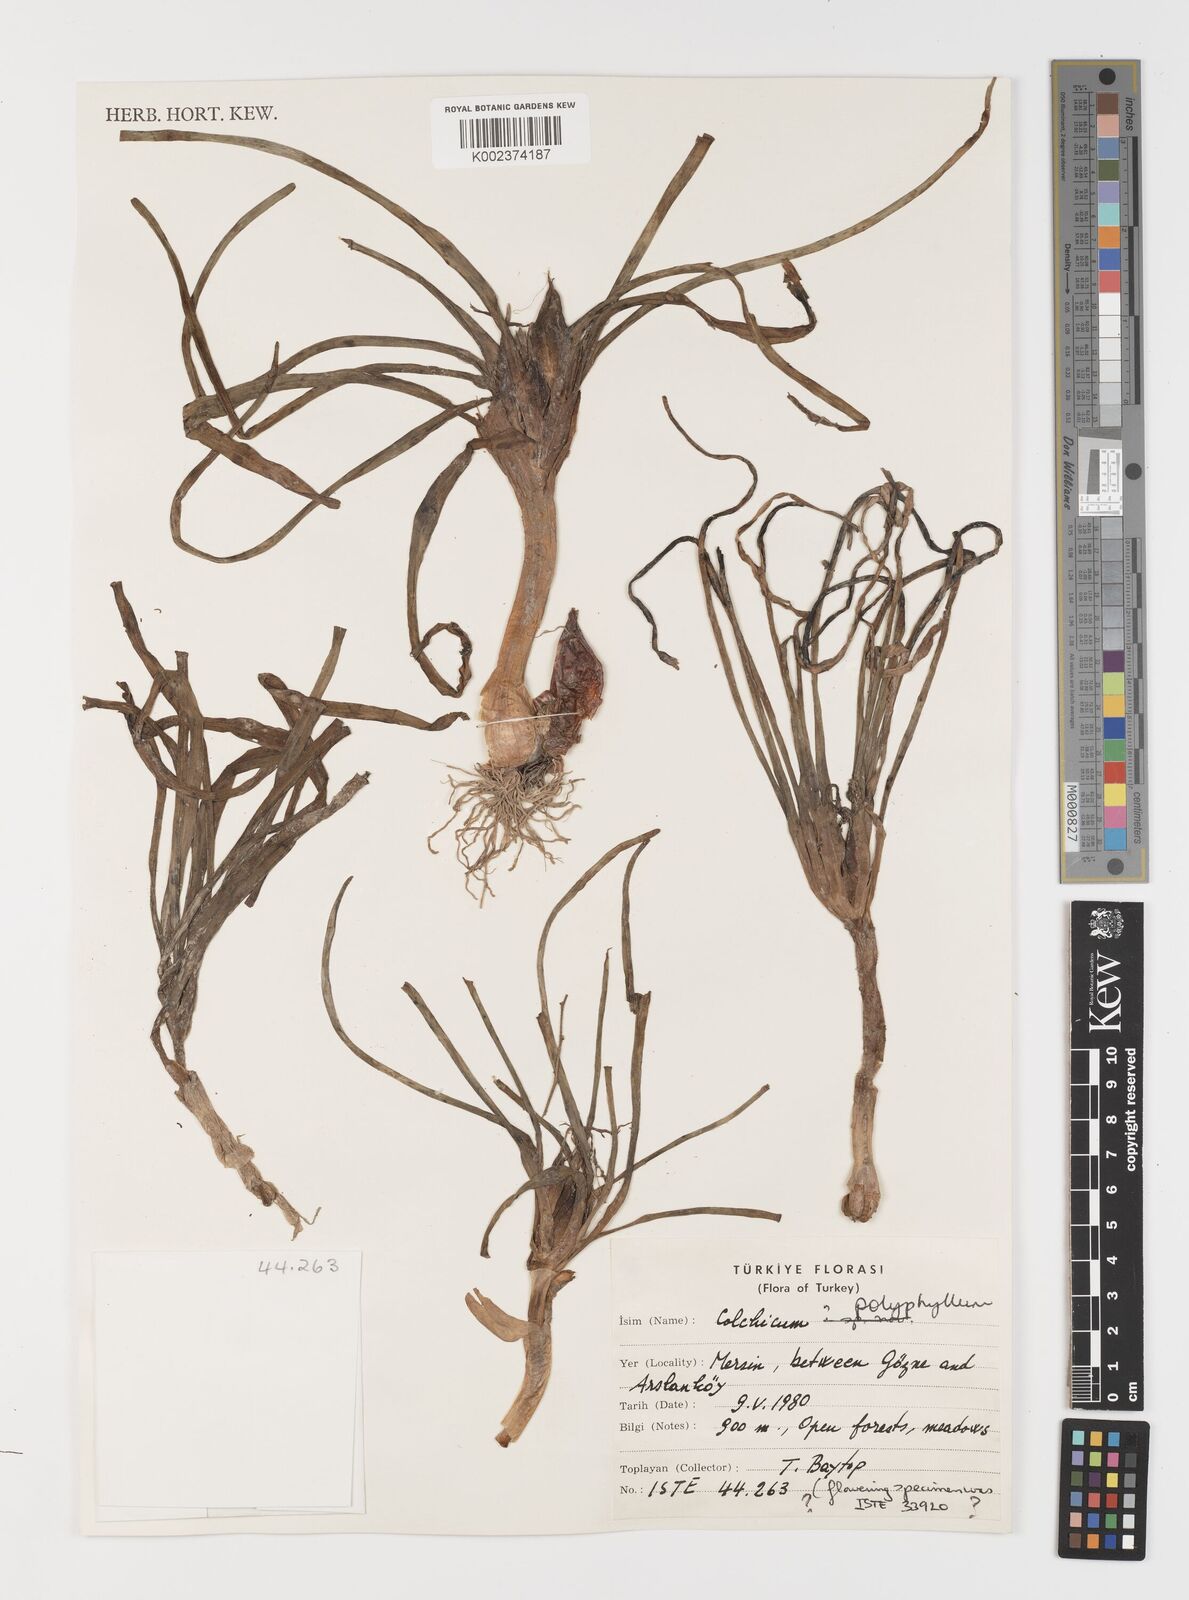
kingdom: Plantae
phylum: Tracheophyta
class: Liliopsida
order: Liliales
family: Colchicaceae
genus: Colchicum
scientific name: Colchicum polyphyllum
